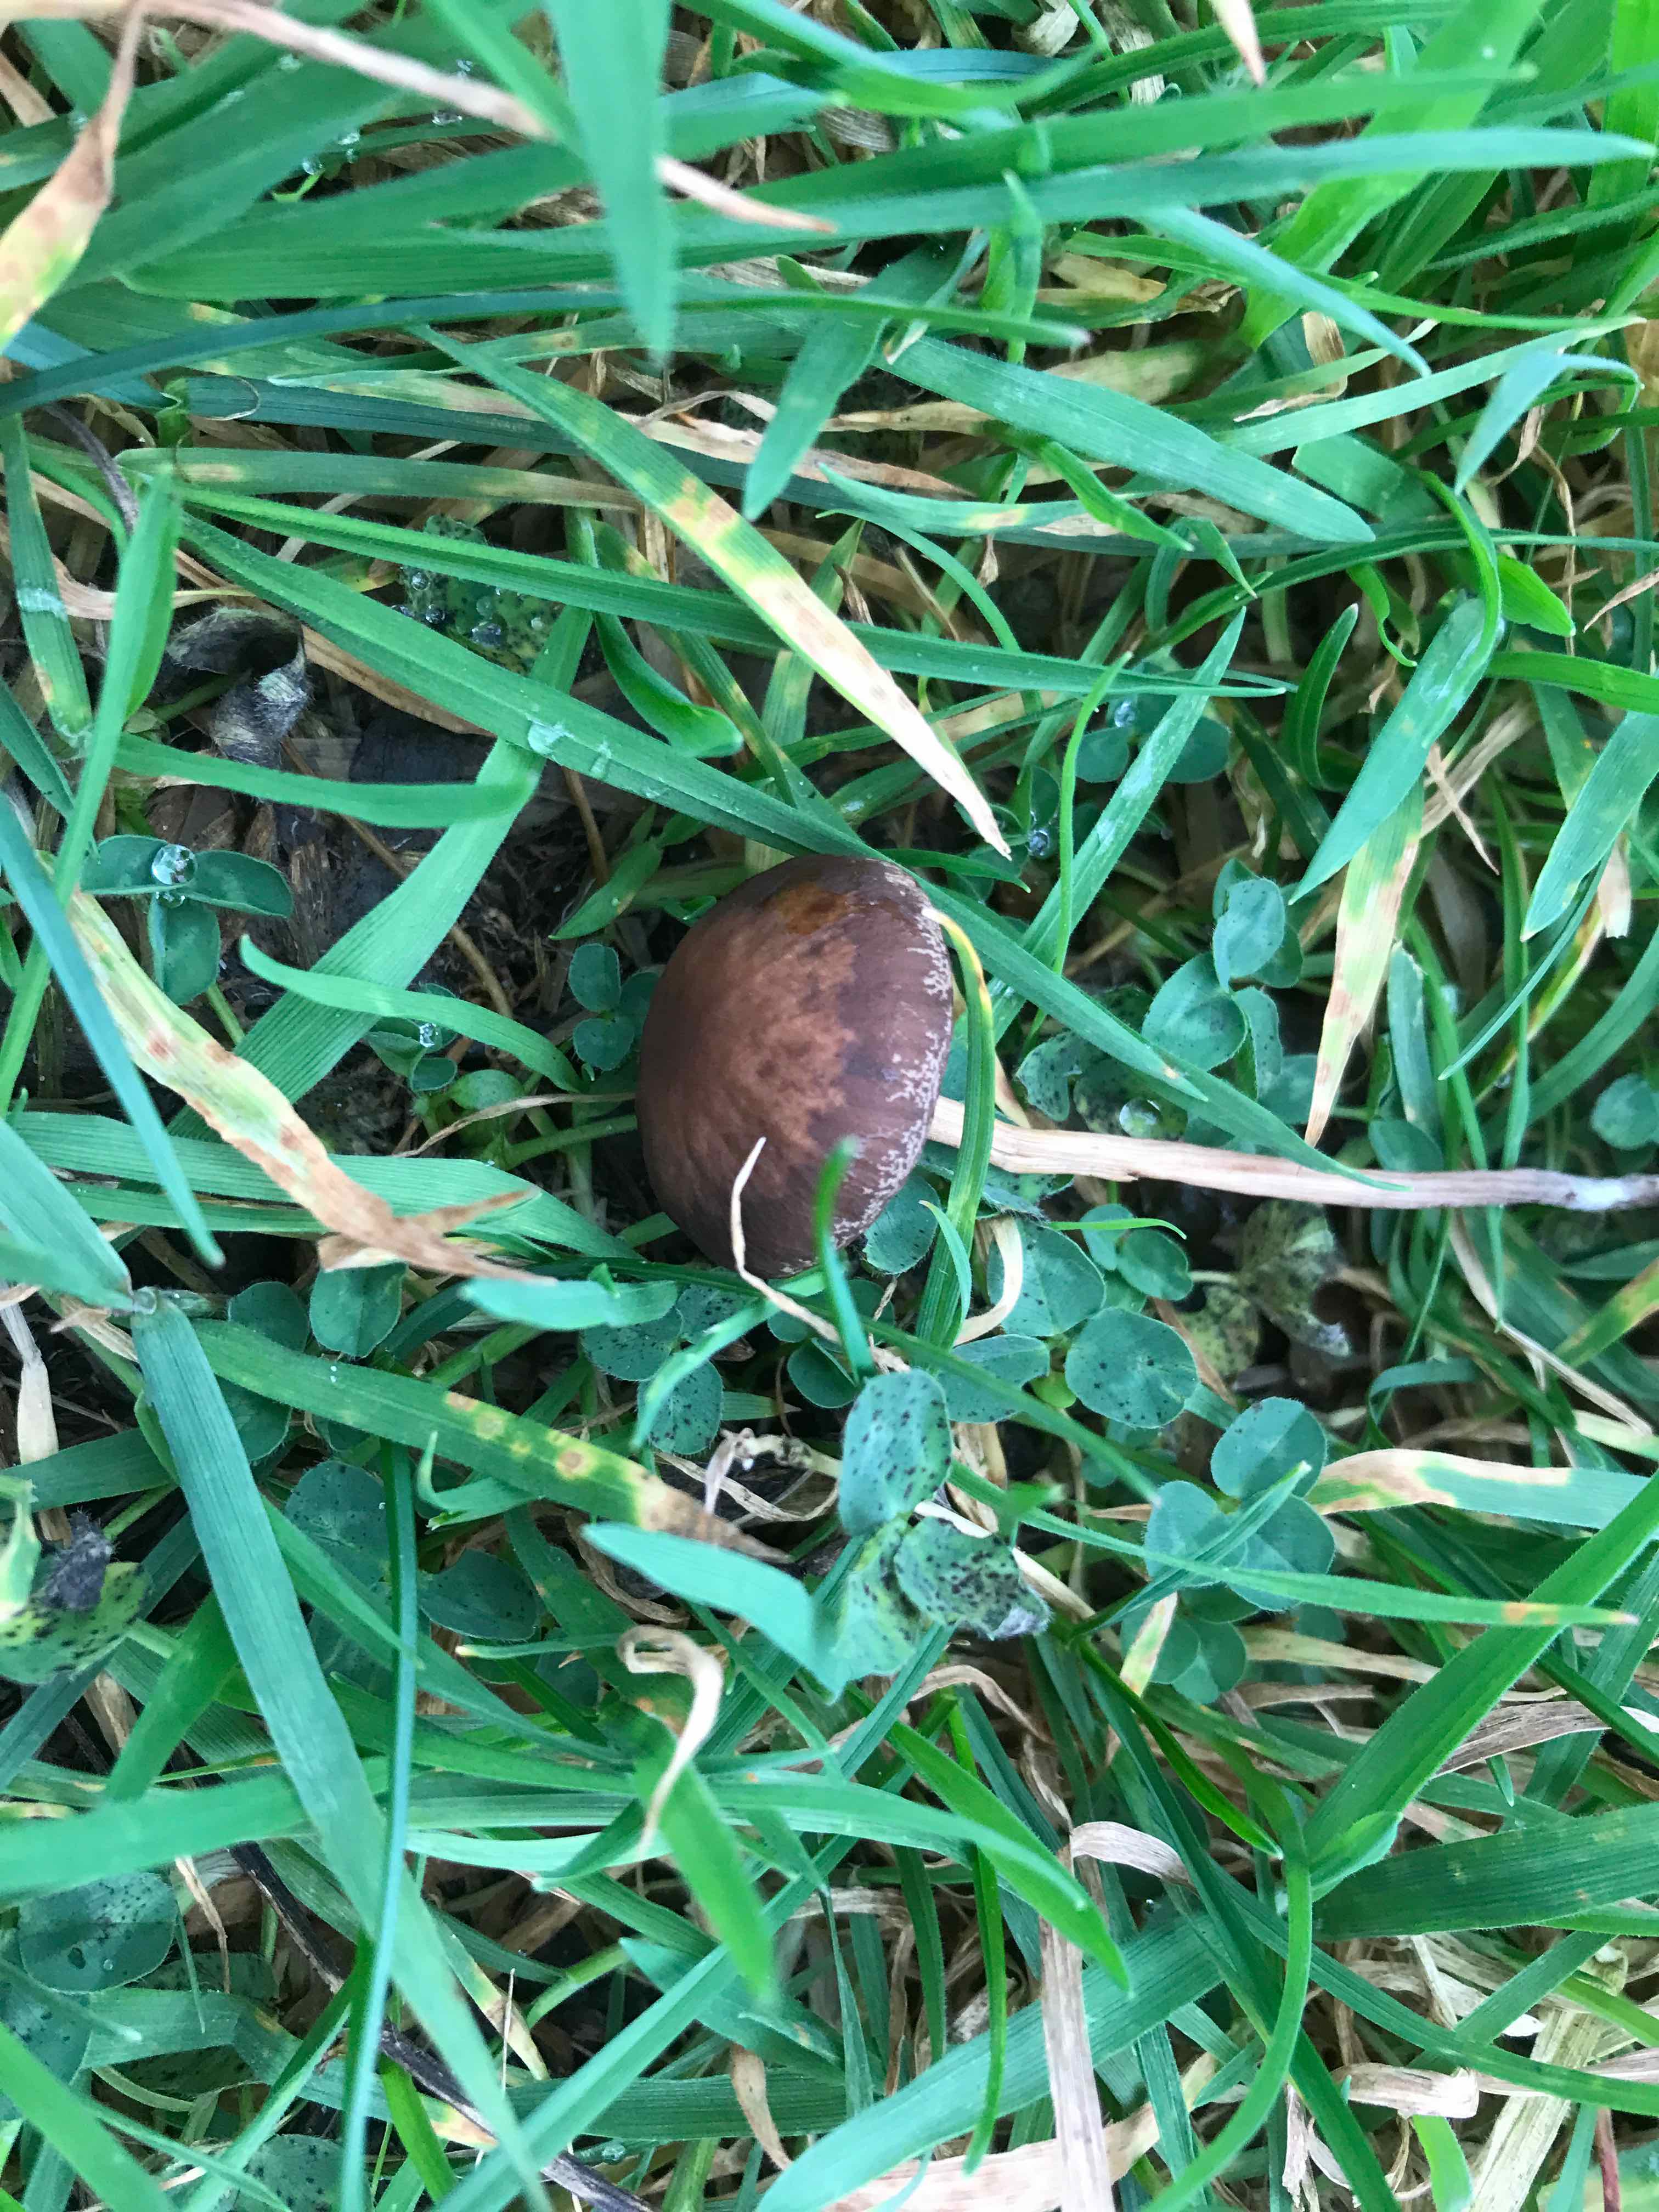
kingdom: Fungi
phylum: Basidiomycota
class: Agaricomycetes
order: Agaricales
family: Bolbitiaceae
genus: Panaeolina
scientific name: Panaeolina foenisecii
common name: høslætsvamp
